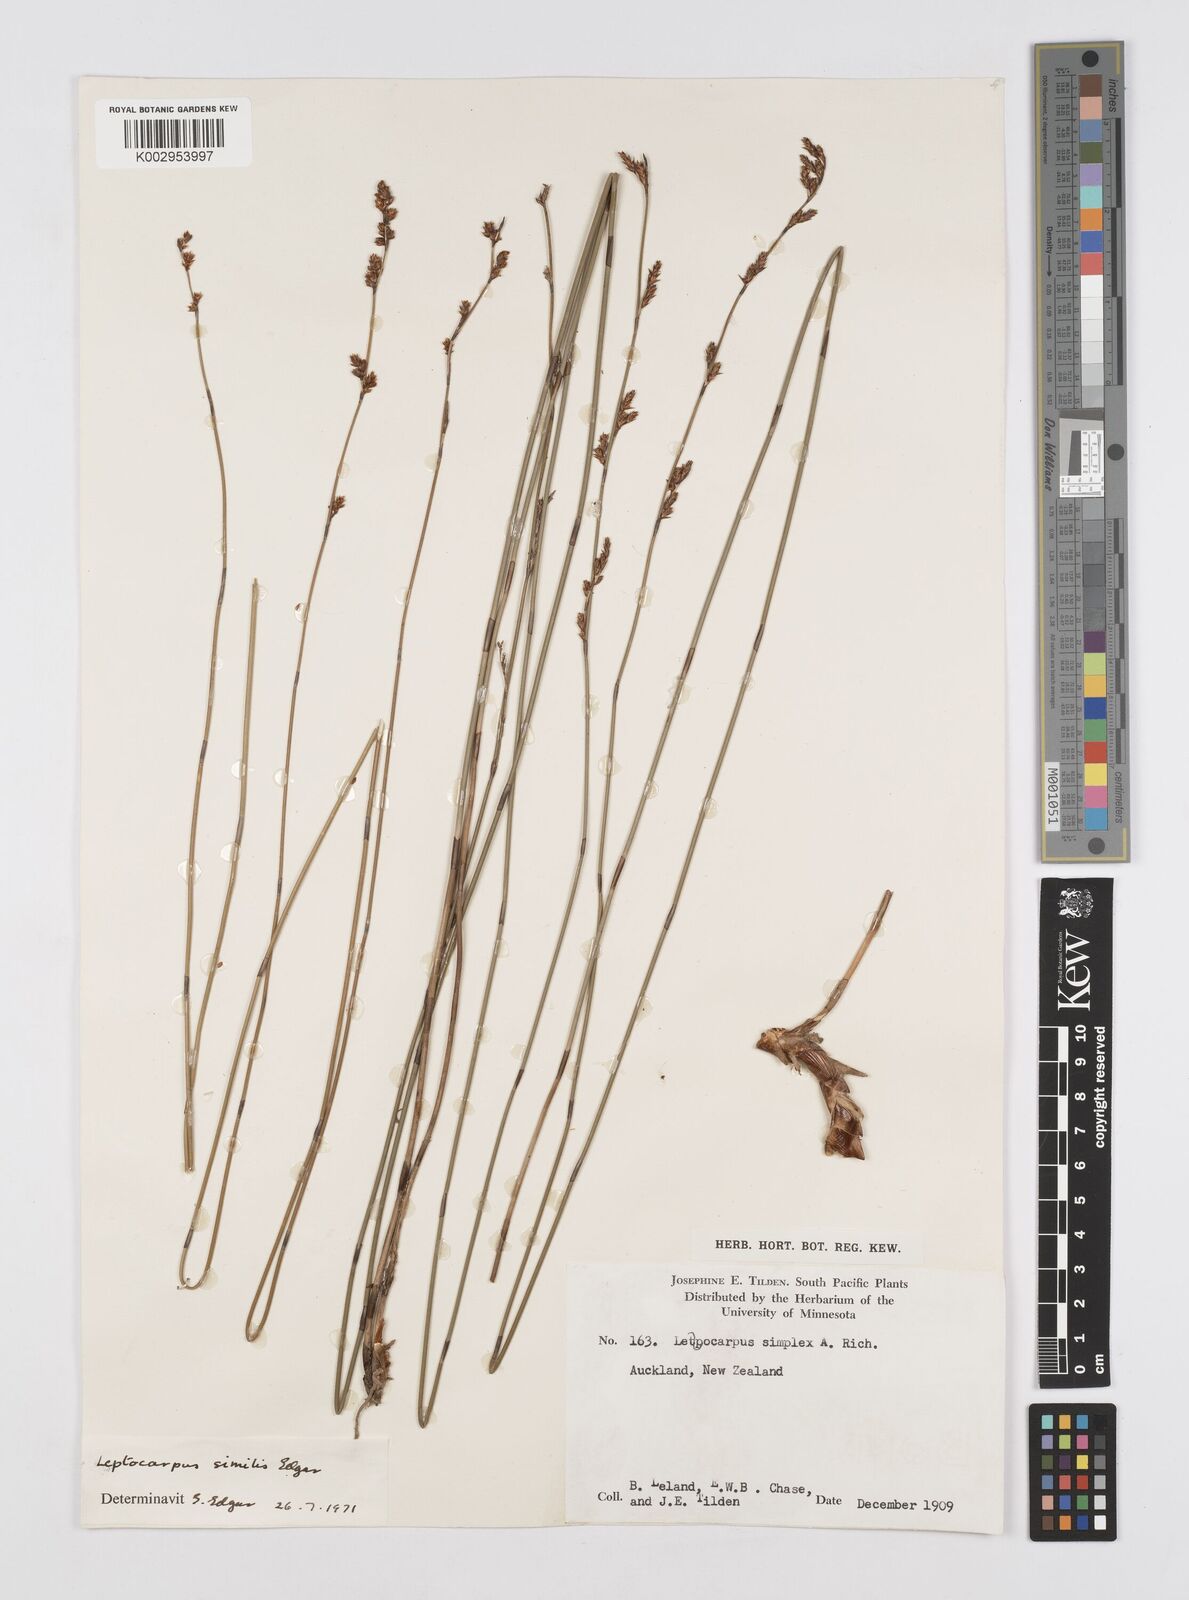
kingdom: Plantae
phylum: Tracheophyta
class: Liliopsida
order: Poales
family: Restionaceae
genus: Apodasmia
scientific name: Apodasmia similis
